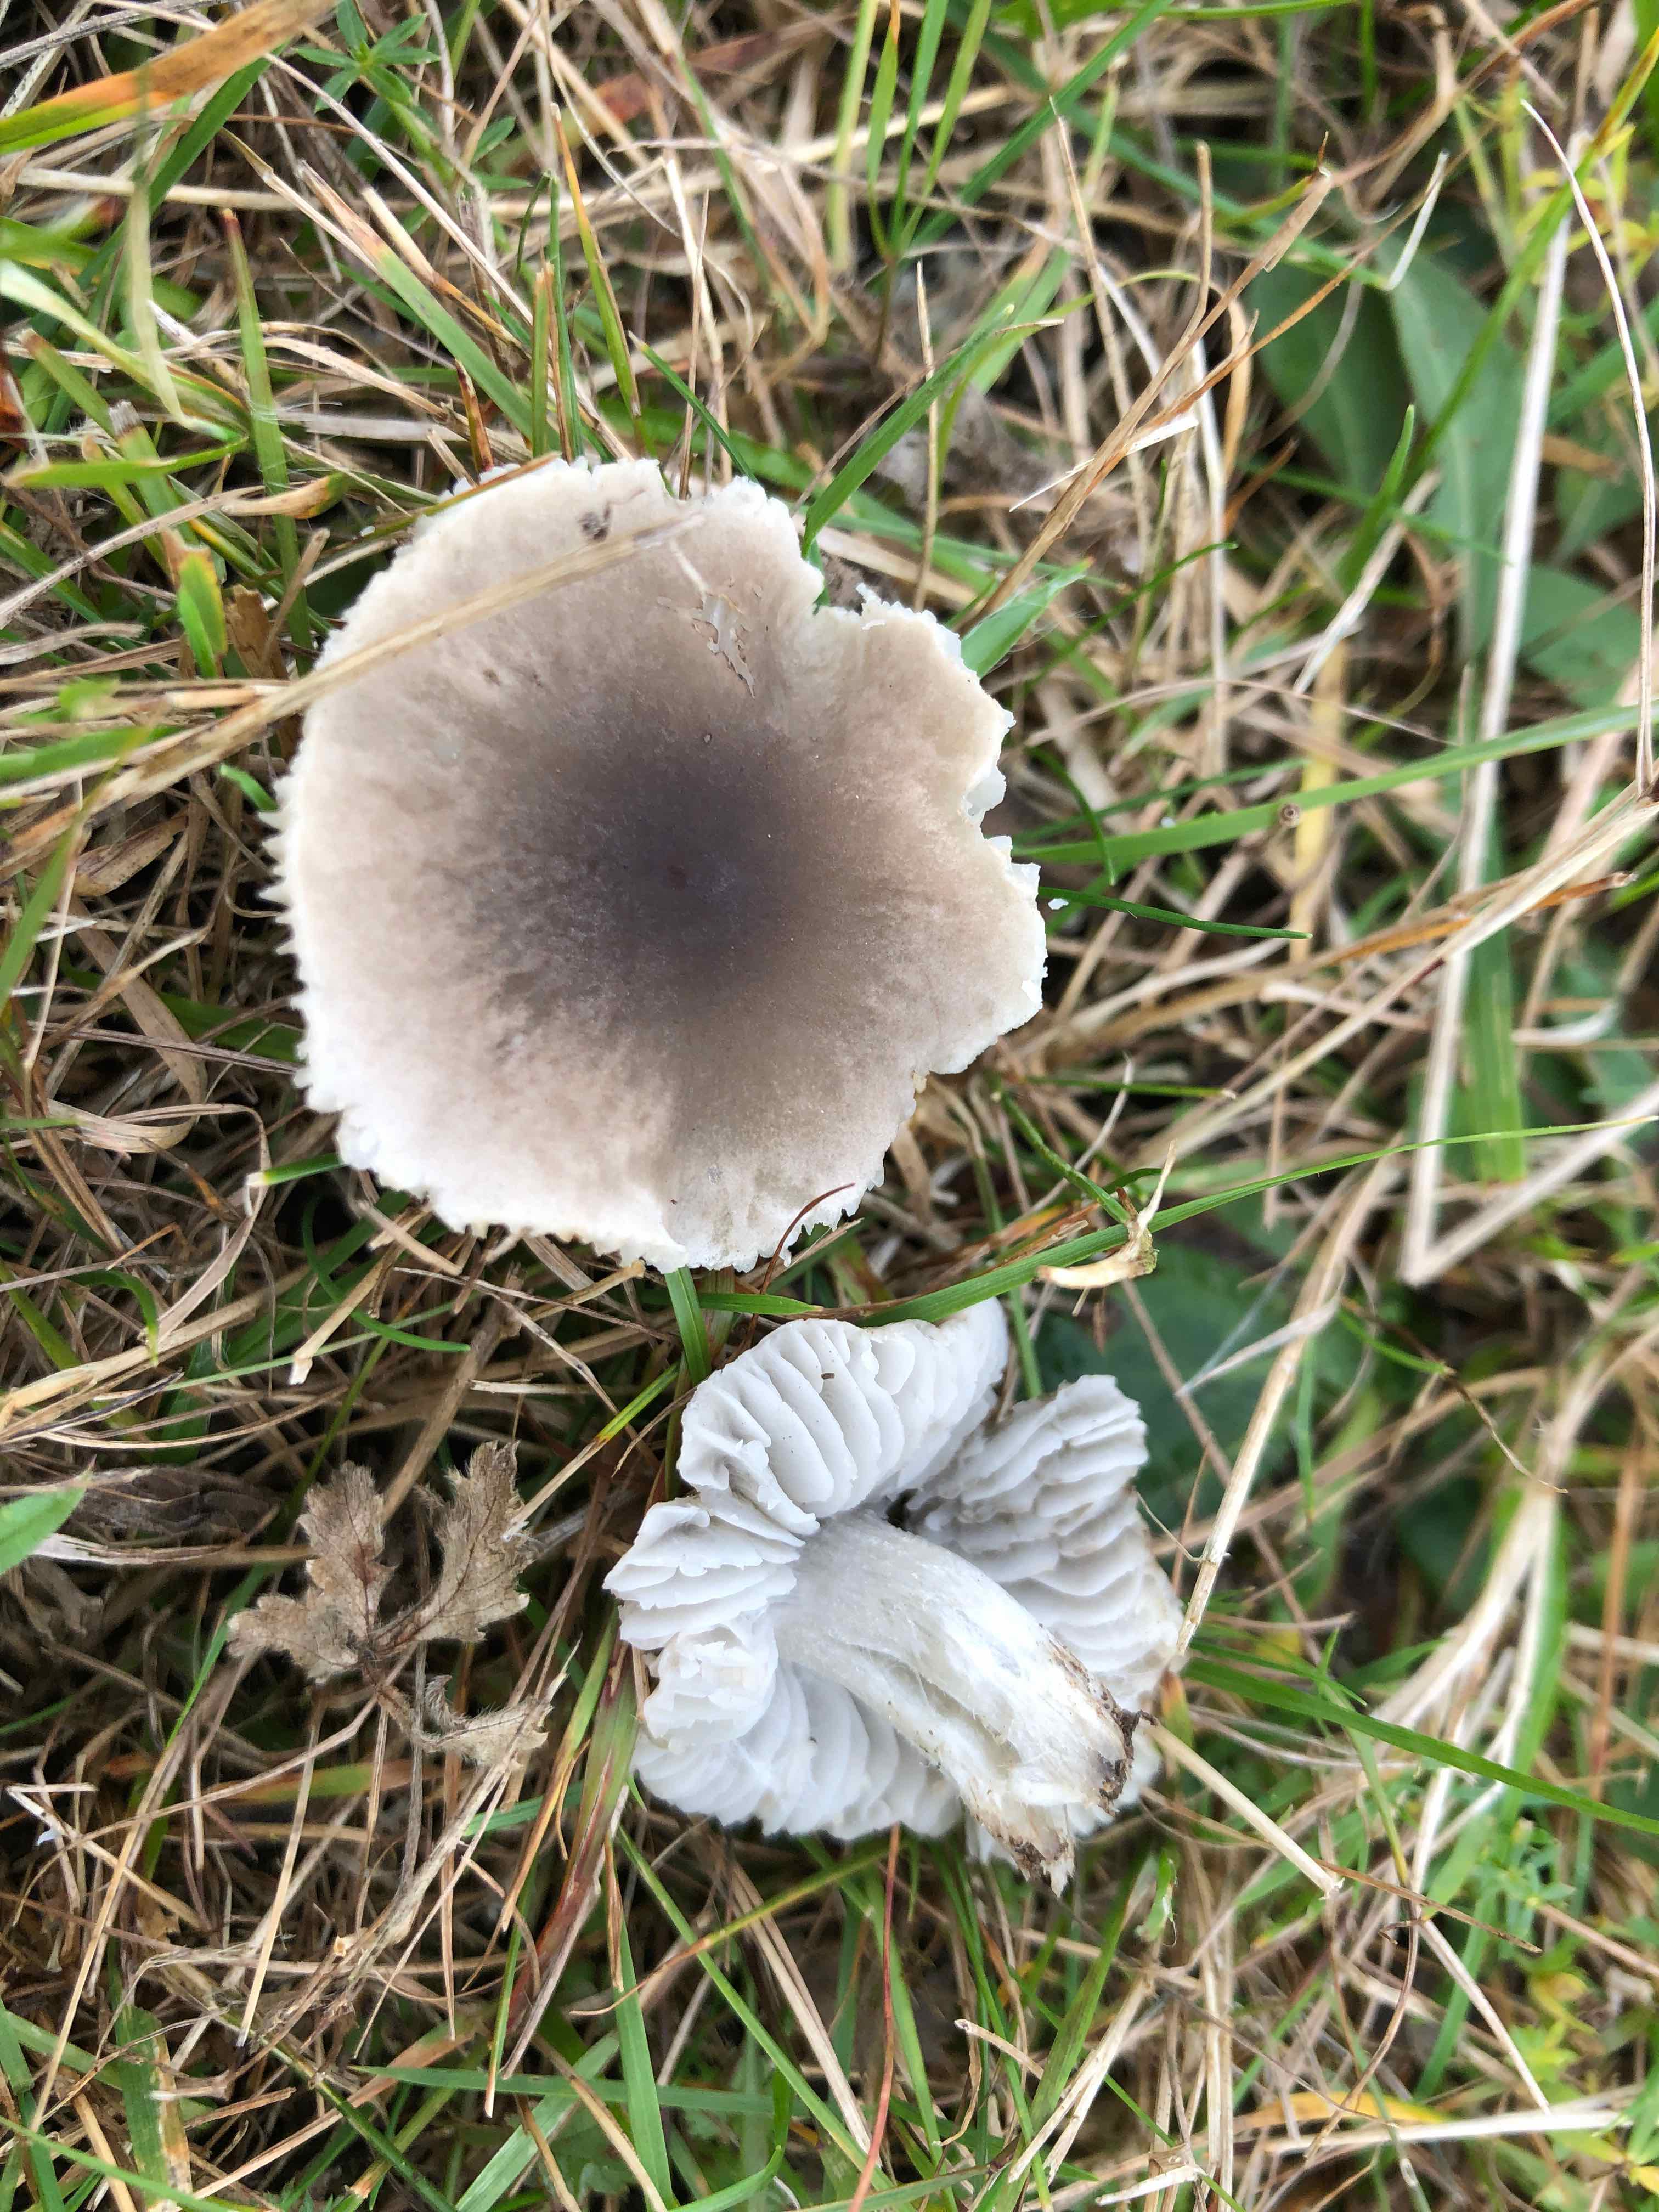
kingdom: Fungi
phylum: Basidiomycota
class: Agaricomycetes
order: Agaricales
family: Tricholomataceae
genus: Dermoloma
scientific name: Dermoloma cuneifolium
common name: eng-nonnehat
